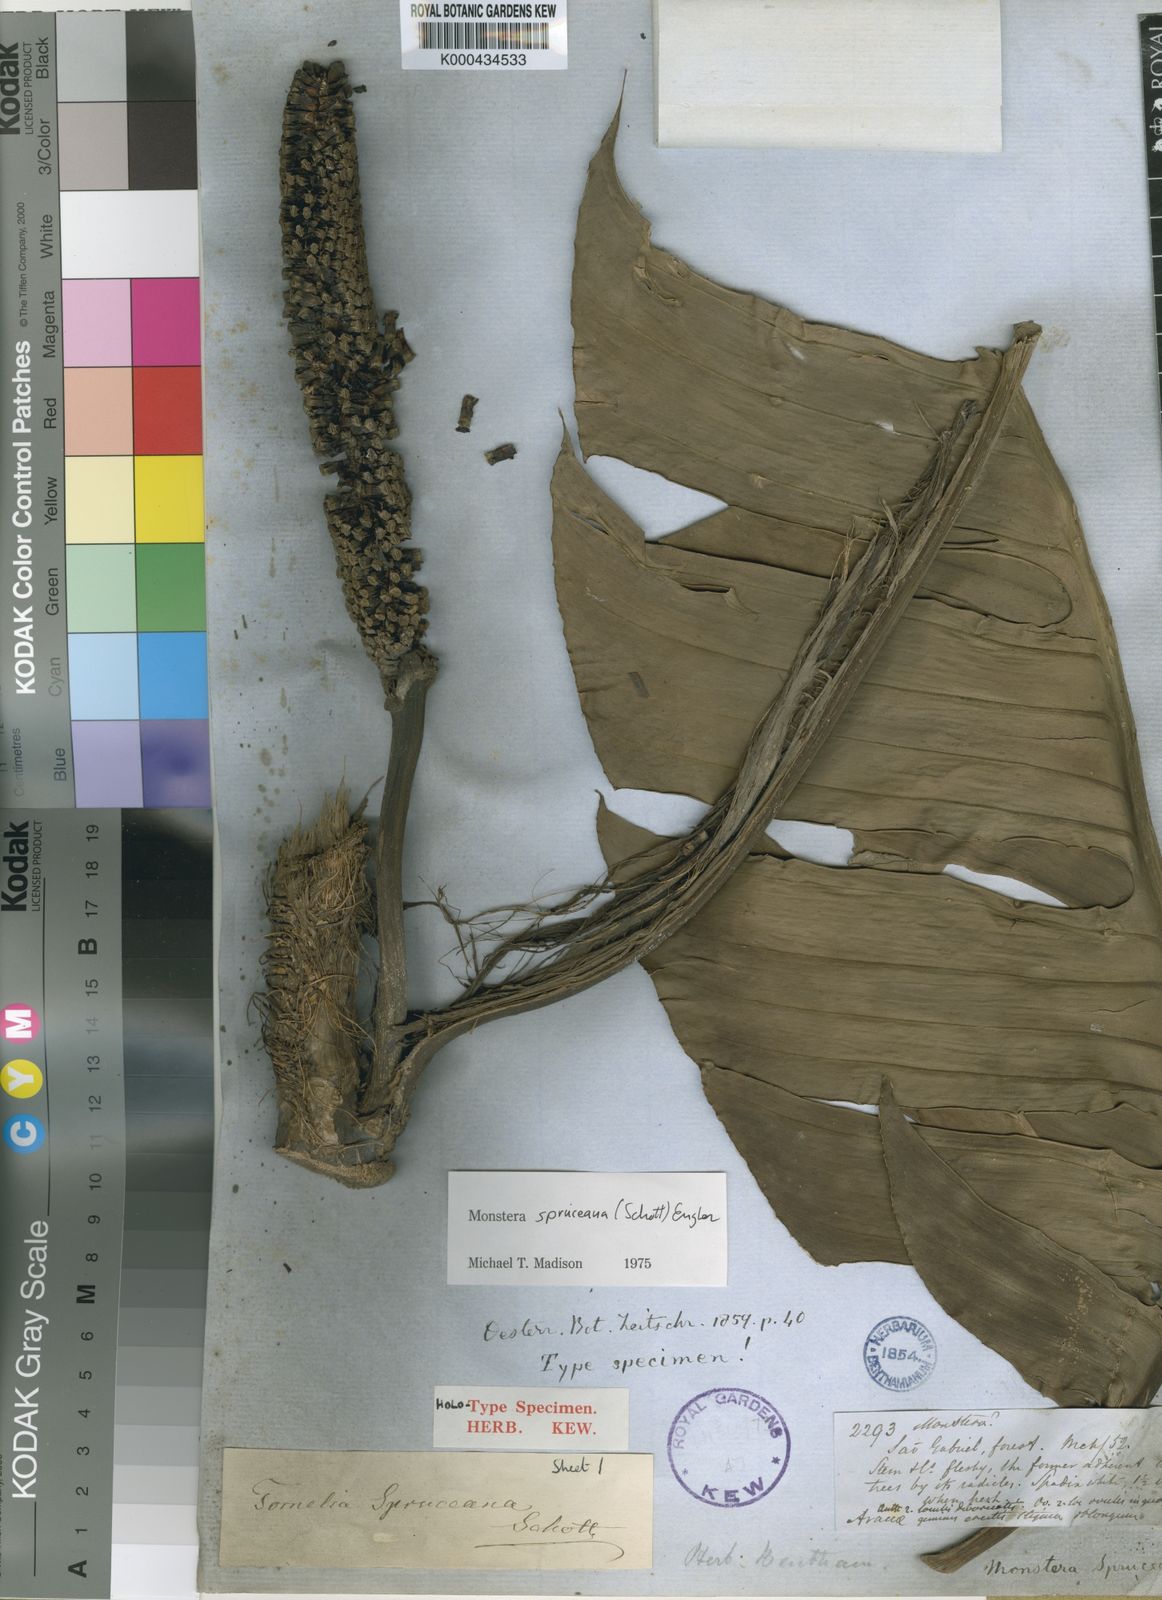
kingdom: Plantae
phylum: Tracheophyta
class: Liliopsida
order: Alismatales
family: Araceae
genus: Monstera
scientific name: Monstera spruceana
